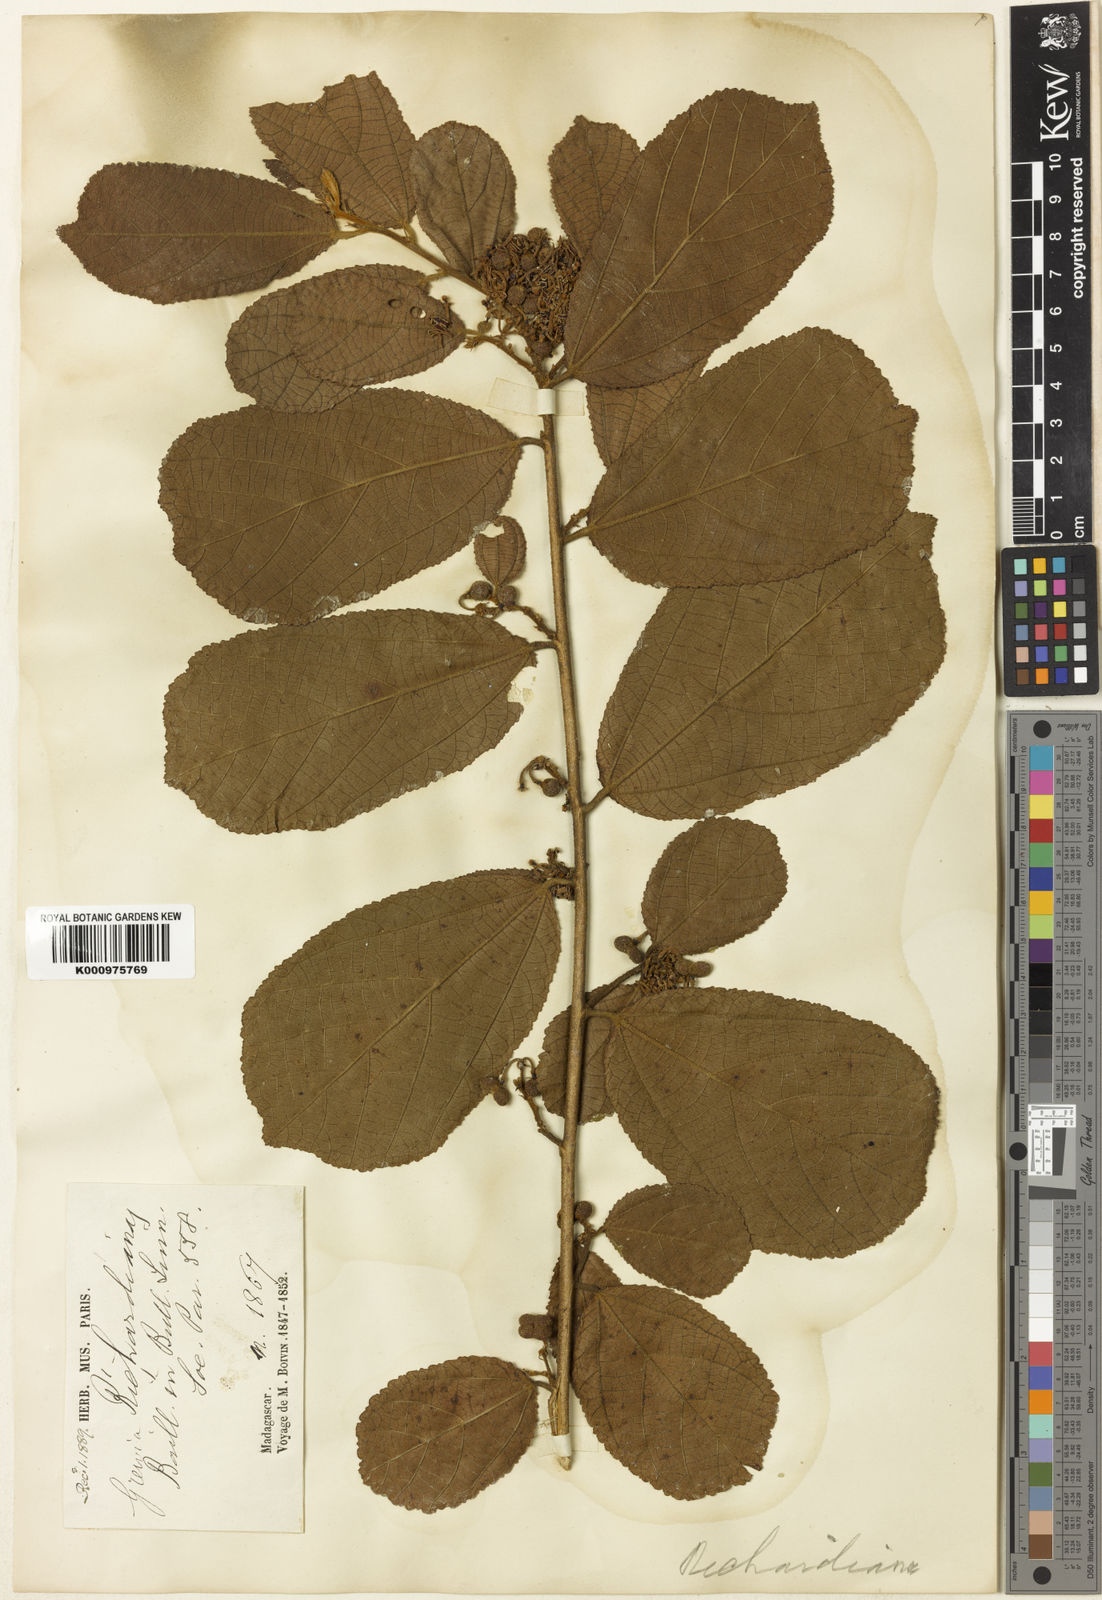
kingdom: Plantae
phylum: Tracheophyta
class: Magnoliopsida
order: Malvales
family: Malvaceae
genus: Grewia
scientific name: Grewia apetala
